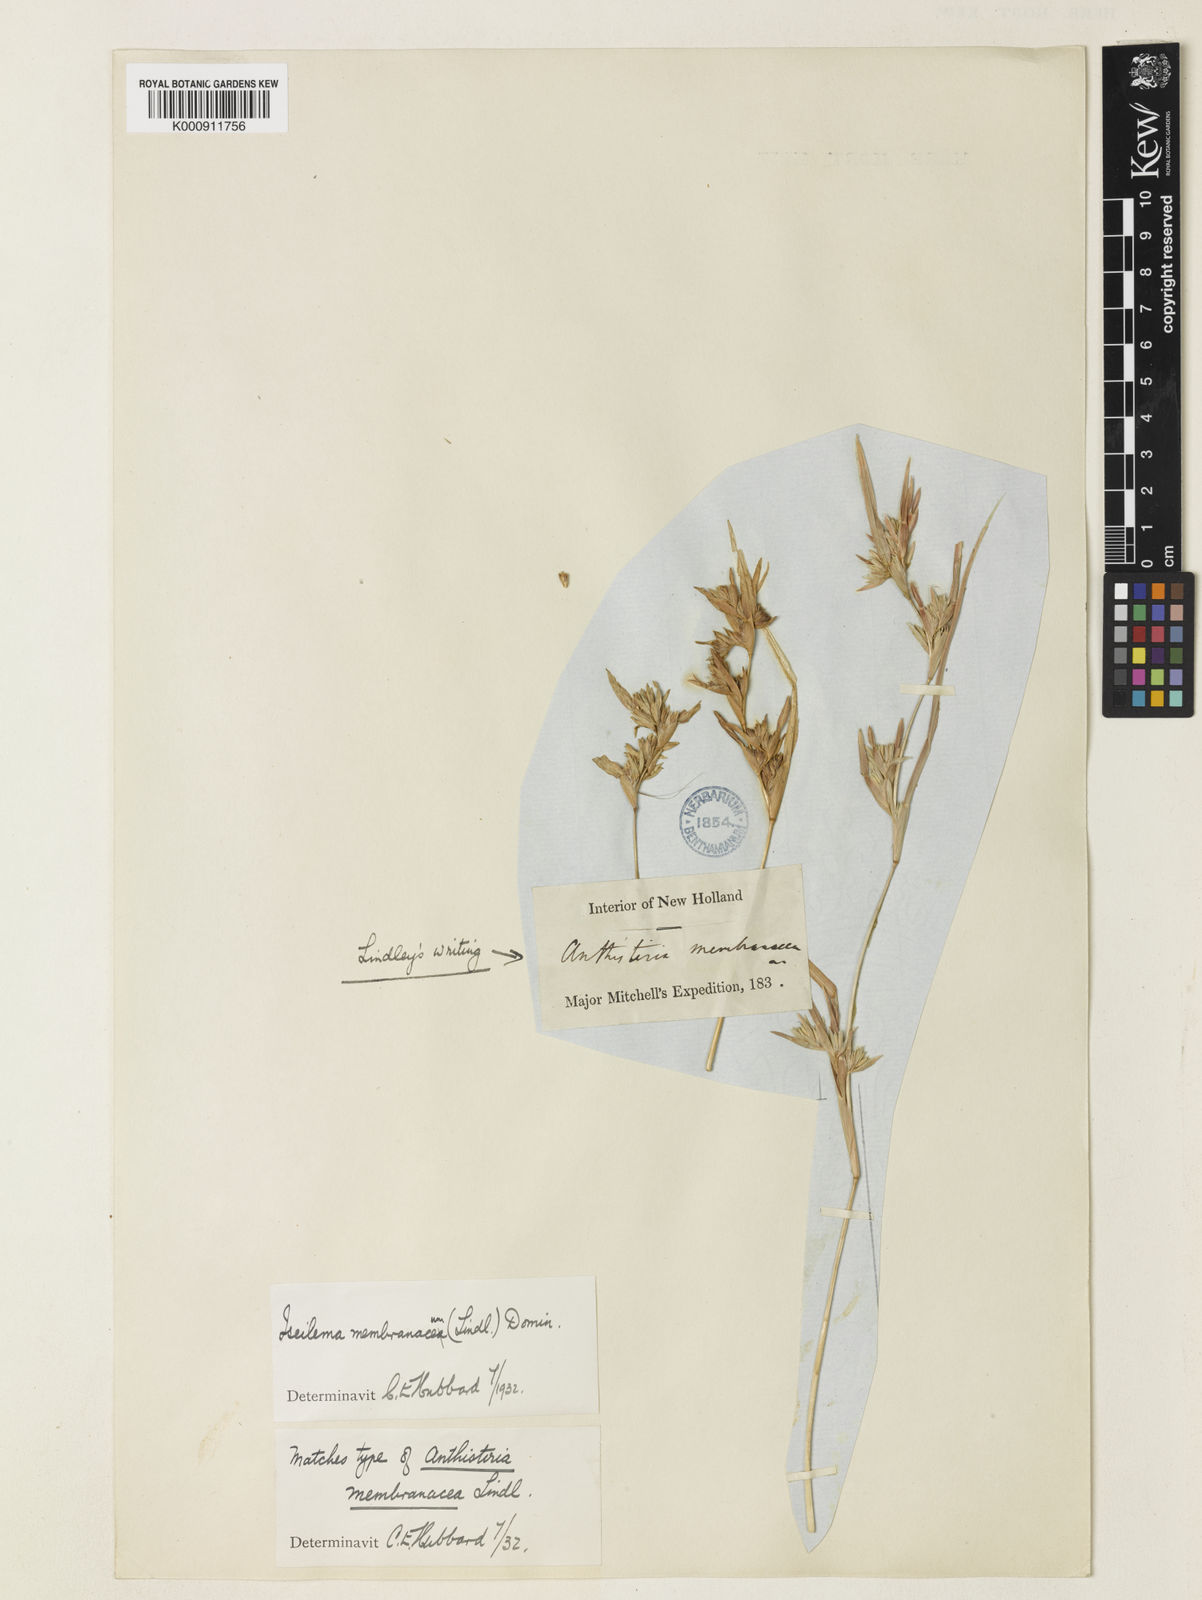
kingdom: Plantae
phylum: Tracheophyta
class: Liliopsida
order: Poales
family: Poaceae
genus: Iseilema
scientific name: Iseilema membranaceum
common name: Small flinders grass
